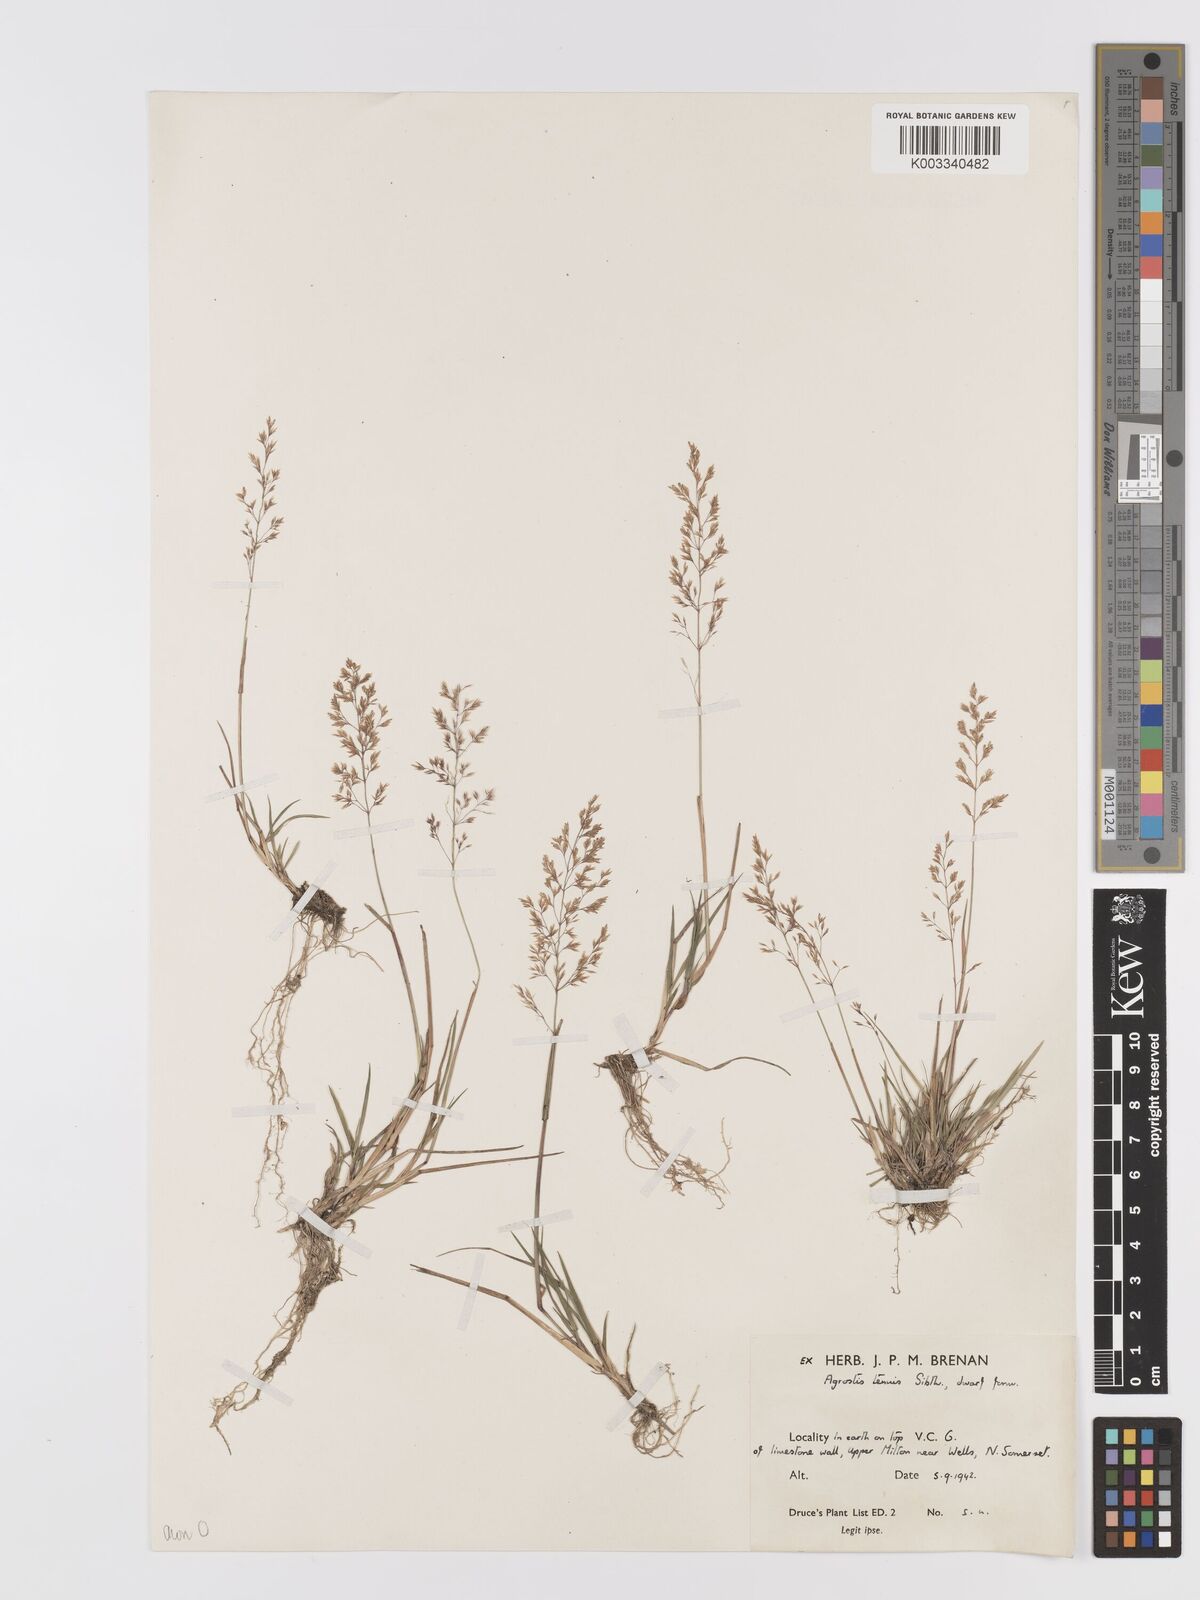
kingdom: Plantae
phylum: Tracheophyta
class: Liliopsida
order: Poales
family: Poaceae
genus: Agrostis
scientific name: Agrostis capillaris
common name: Colonial bentgrass
